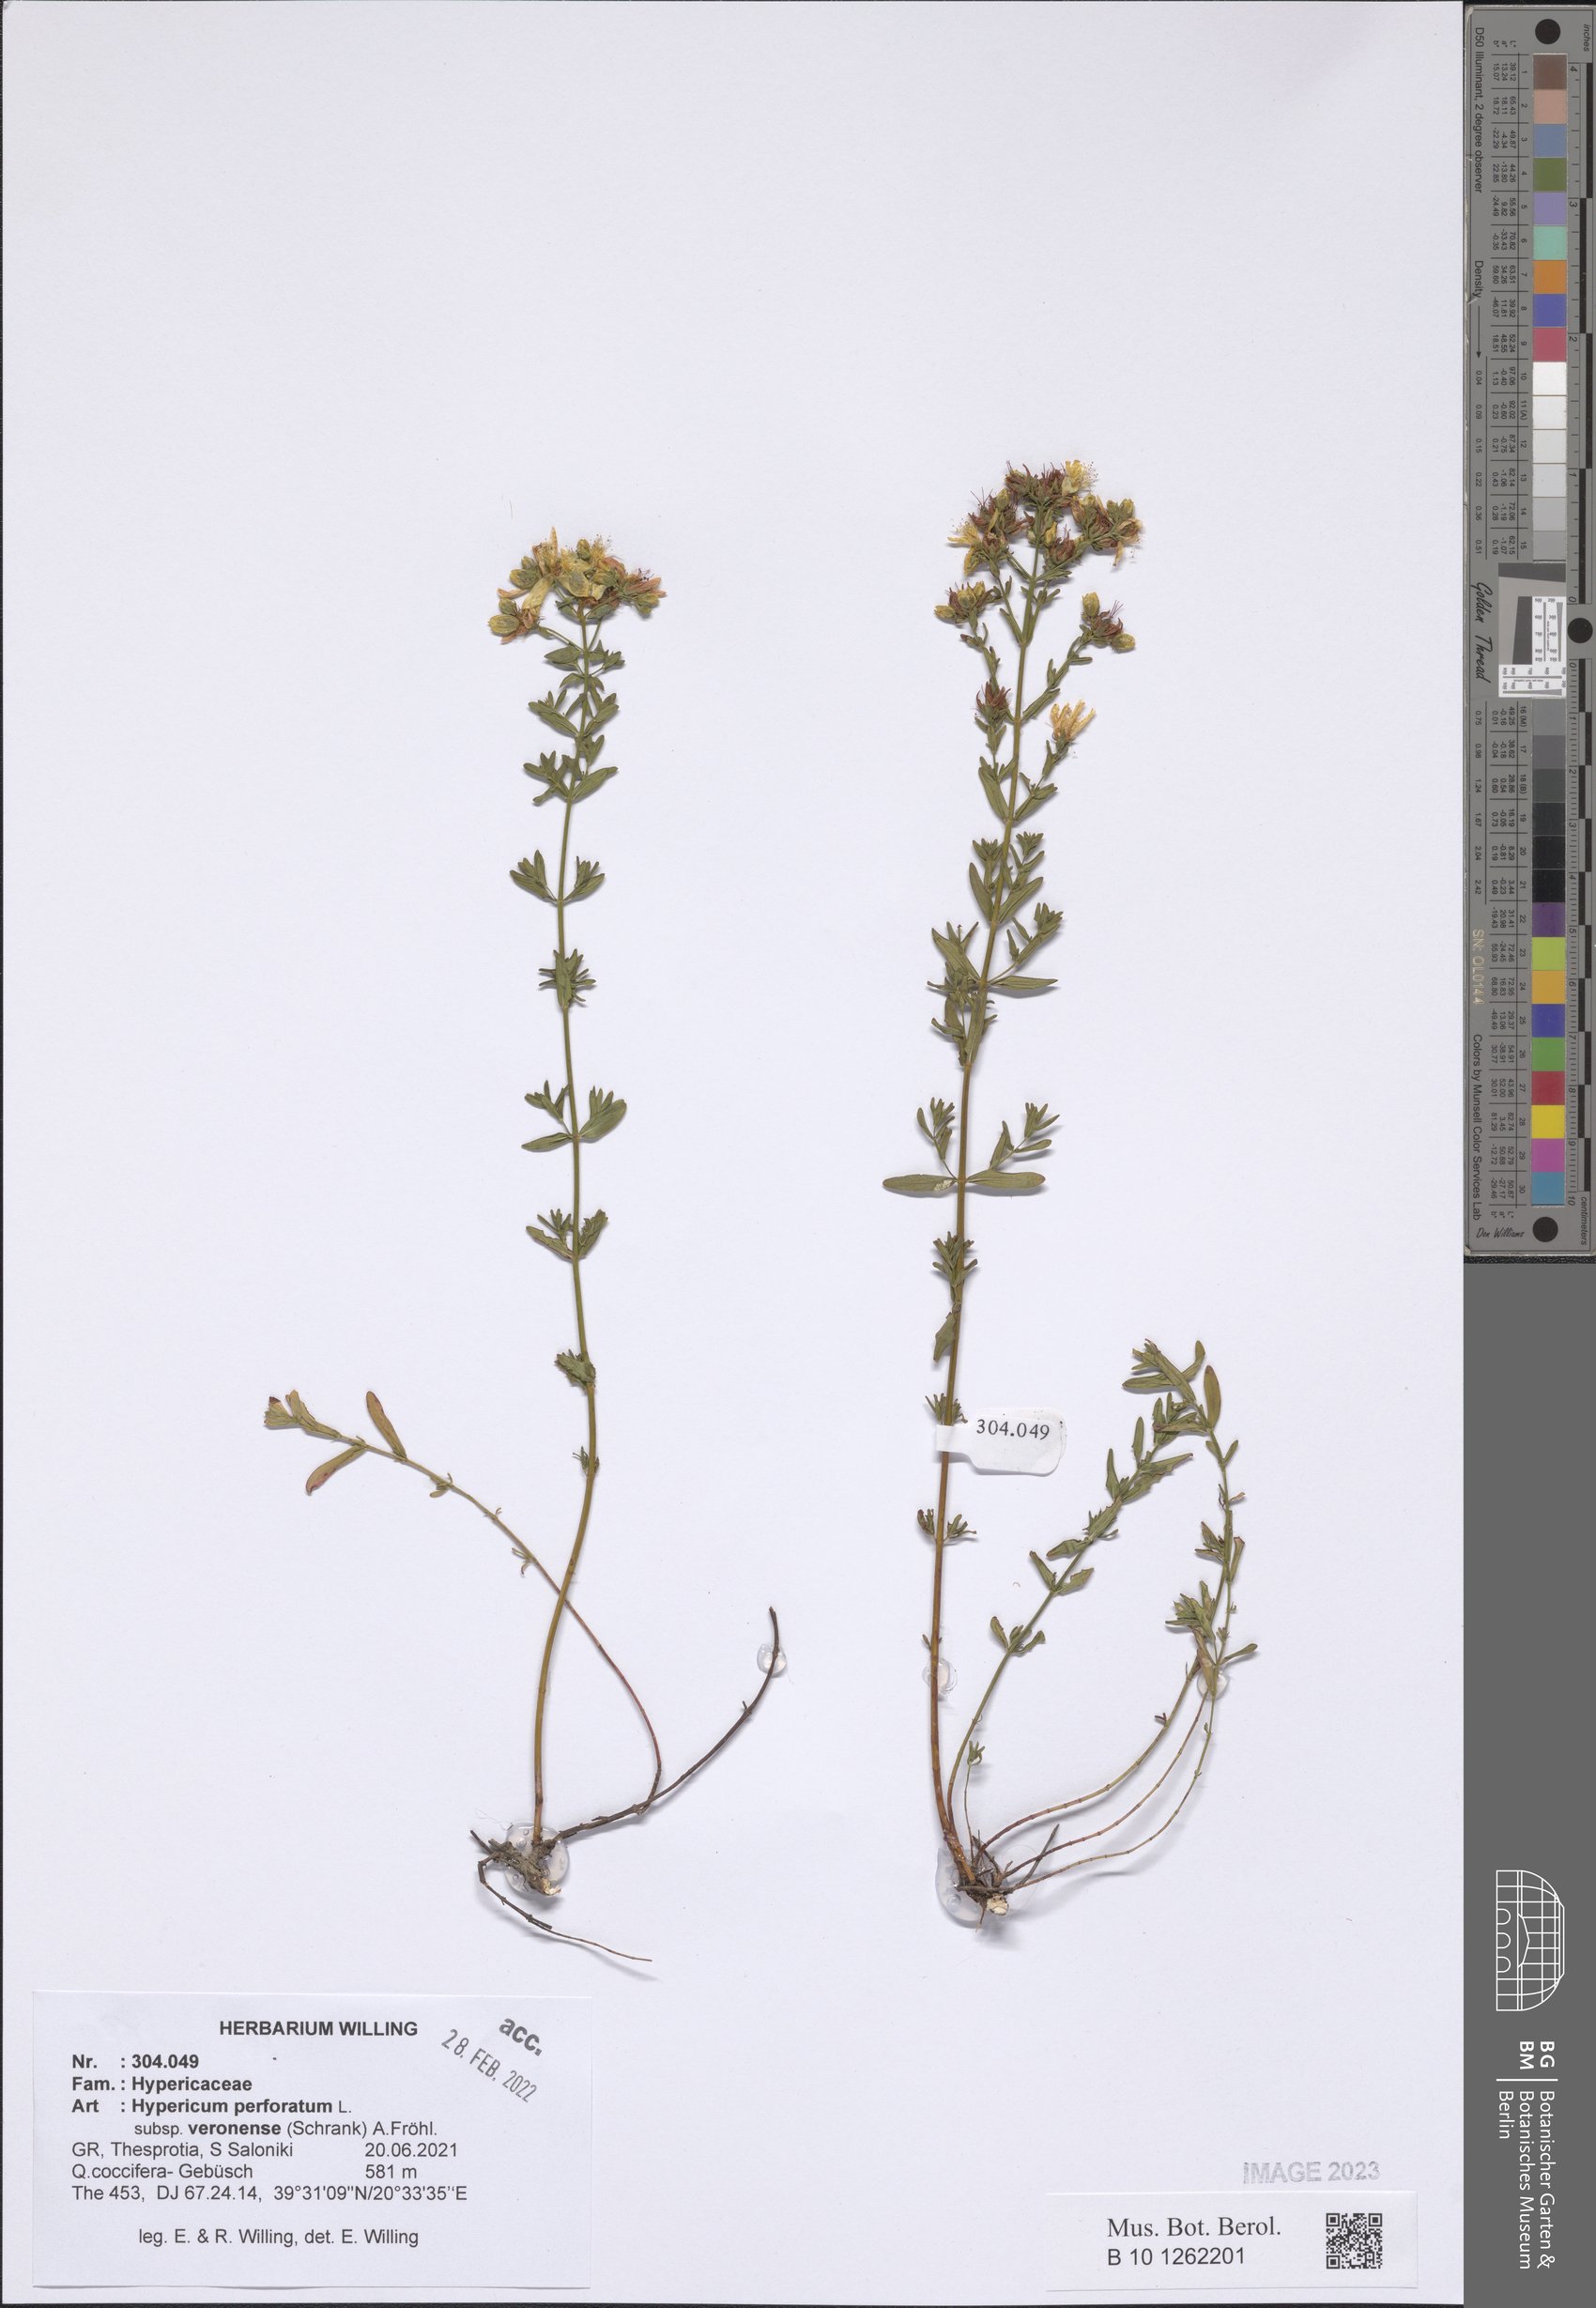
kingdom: Plantae
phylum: Tracheophyta
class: Magnoliopsida
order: Malpighiales
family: Hypericaceae
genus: Hypericum
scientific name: Hypericum veronense
